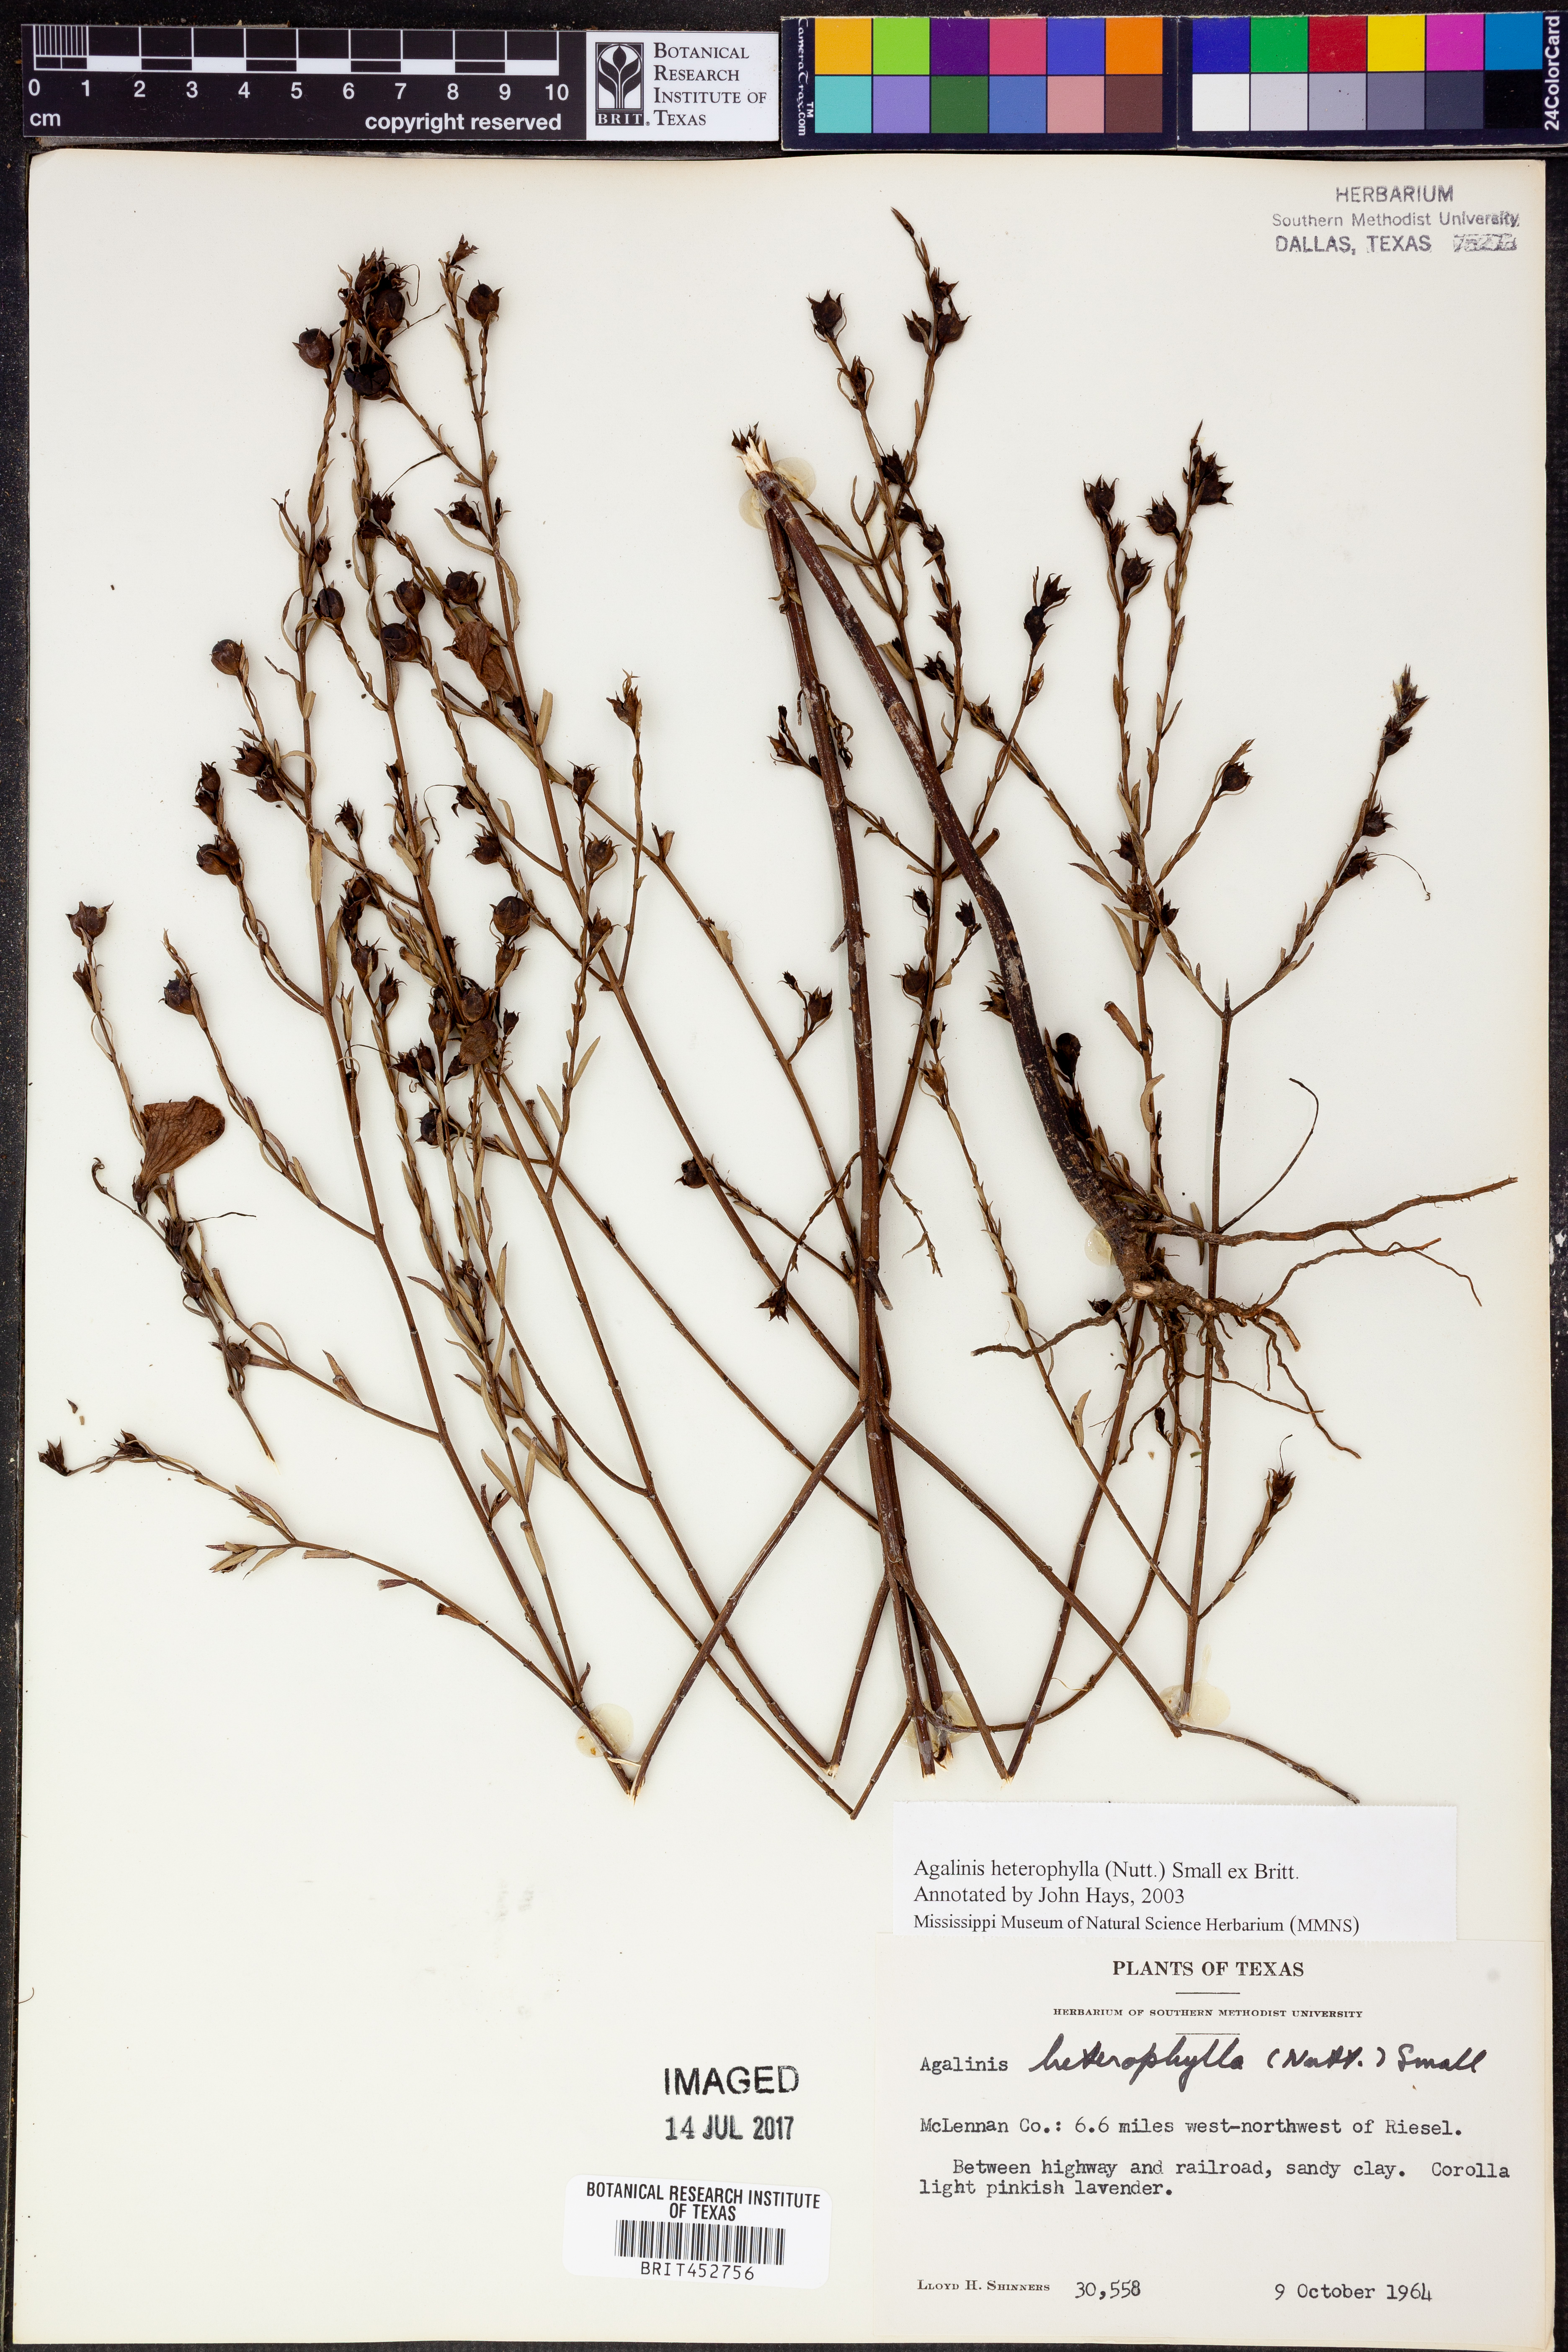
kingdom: Plantae
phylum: Tracheophyta
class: Magnoliopsida
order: Lamiales
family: Orobanchaceae
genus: Agalinis
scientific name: Agalinis heterophylla
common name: Prairie agalinis
